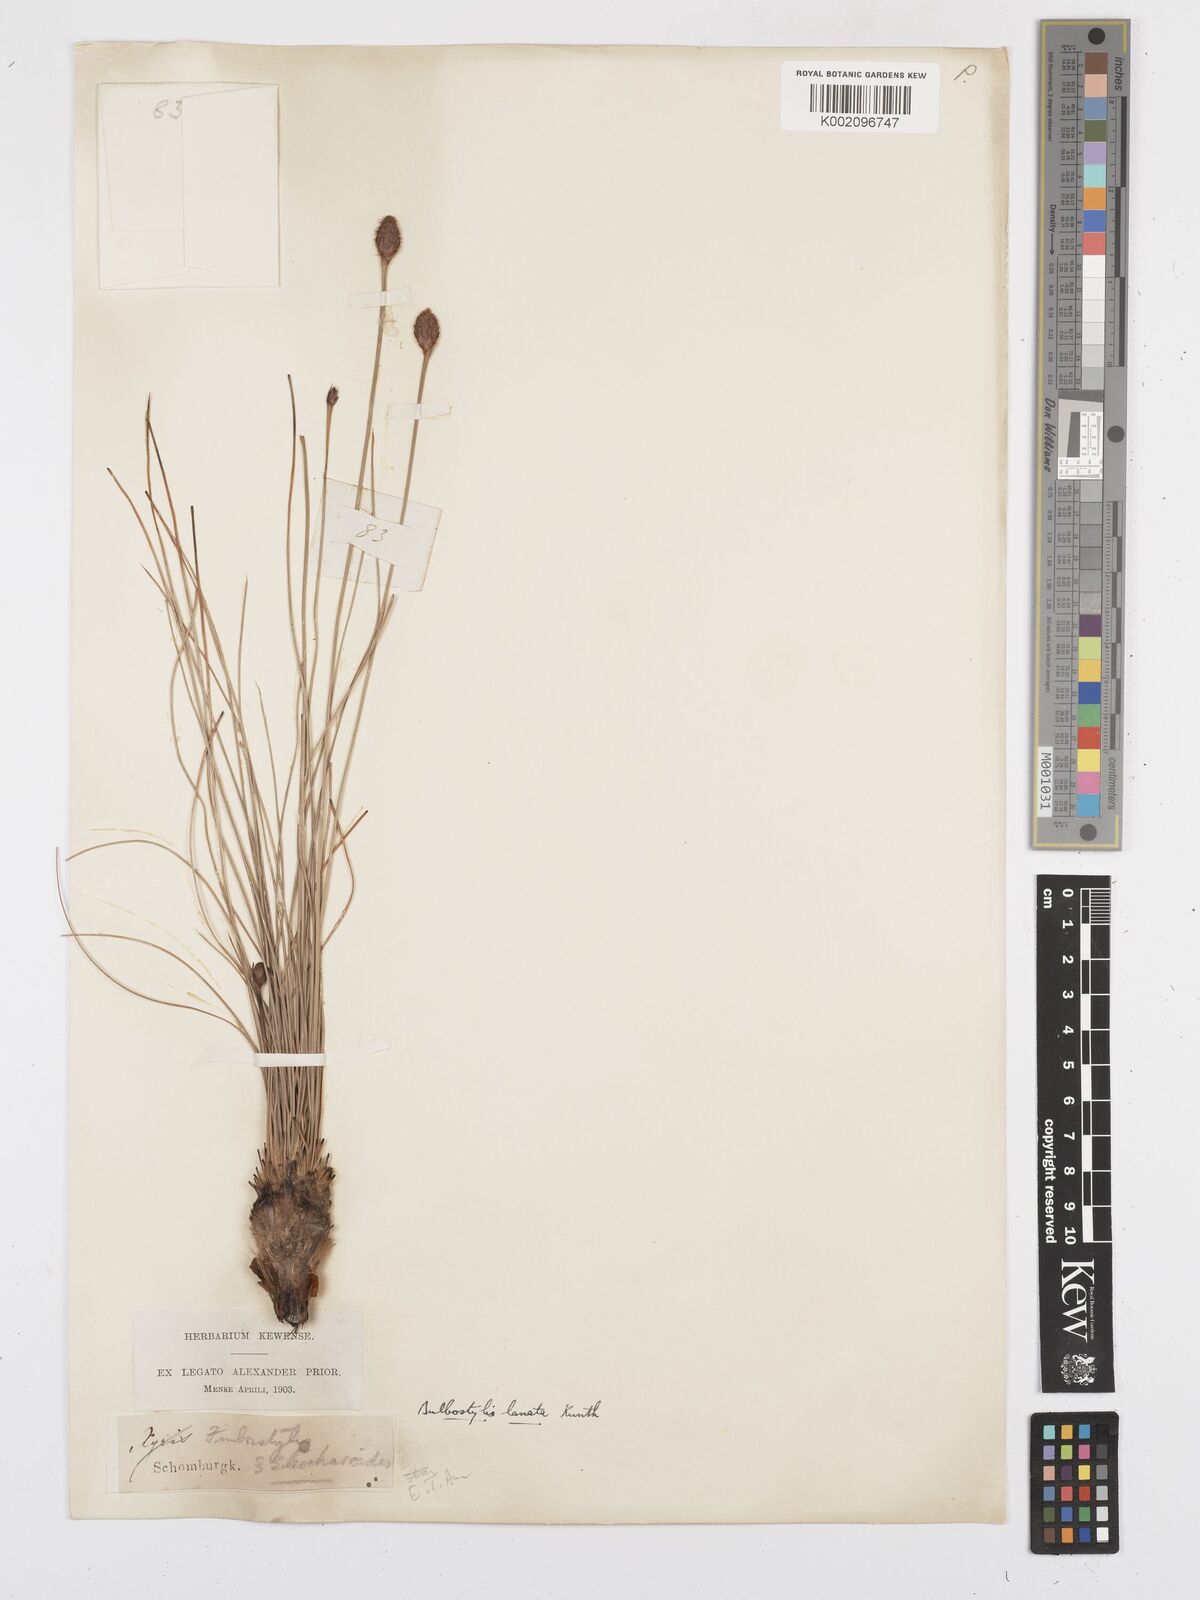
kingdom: Plantae
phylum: Tracheophyta
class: Liliopsida
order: Poales
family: Cyperaceae
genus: Bulbostylis
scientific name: Bulbostylis
